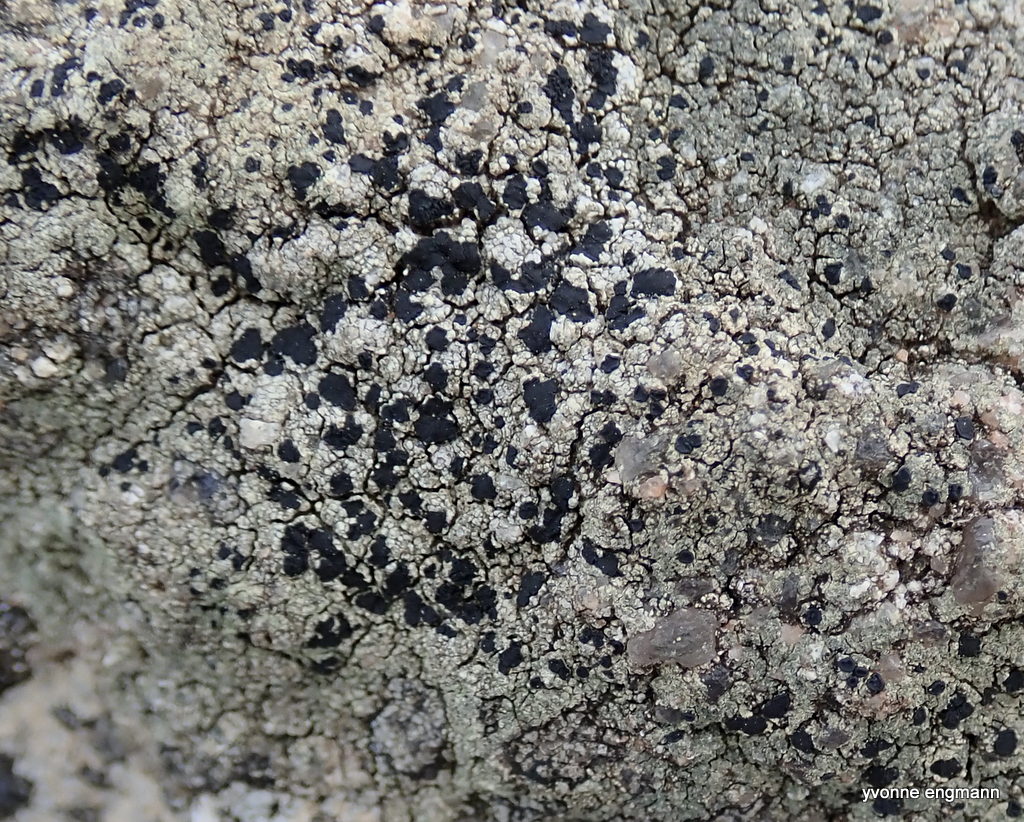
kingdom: Fungi
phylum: Ascomycota
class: Lecanoromycetes
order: Lecideales
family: Lecideaceae
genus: Lecidea
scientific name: Lecidea grisella
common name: grå skivelav
